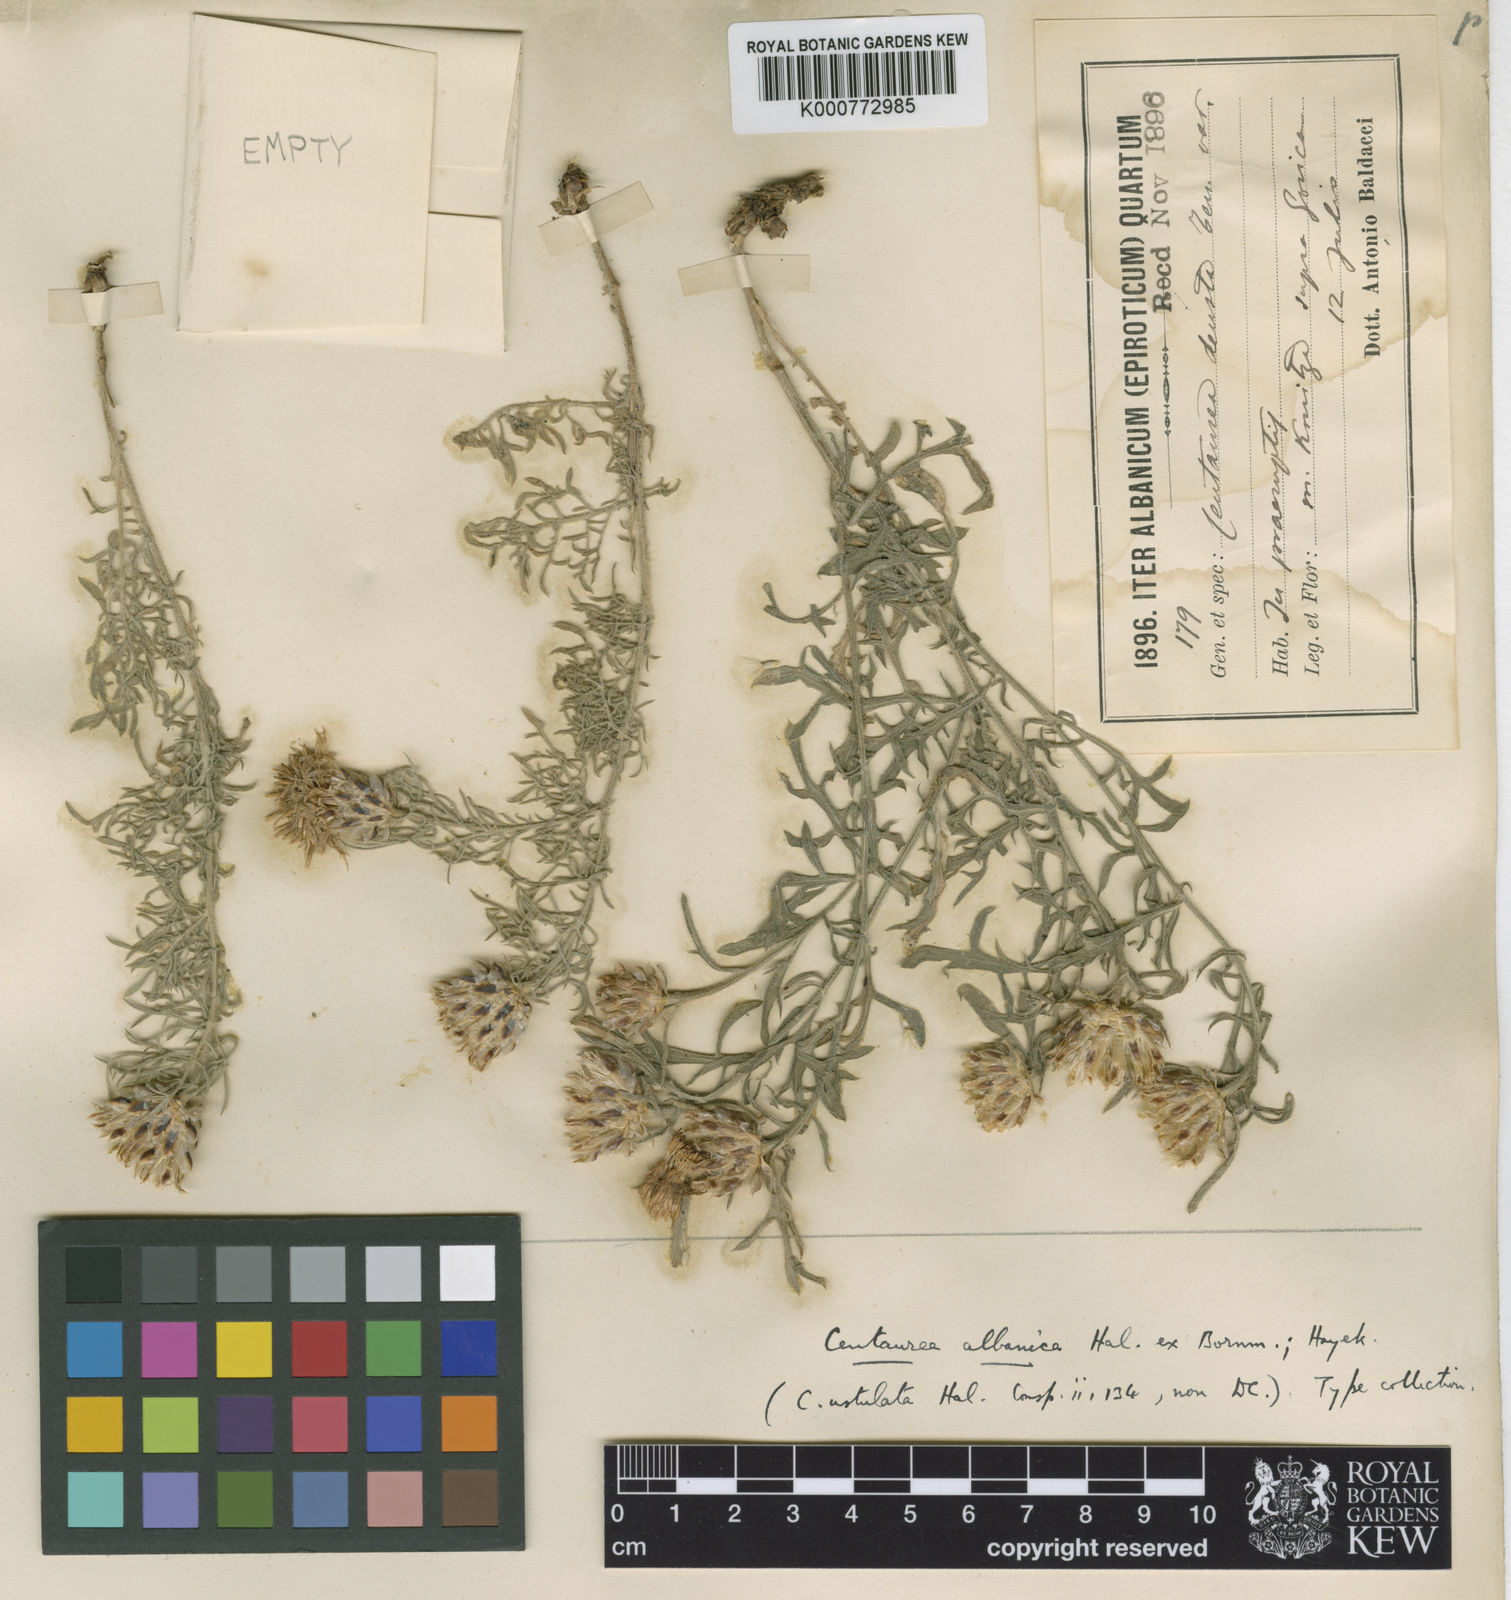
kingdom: Plantae
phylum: Tracheophyta
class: Magnoliopsida
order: Asterales
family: Asteraceae
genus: Centaurea
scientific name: Centaurea alba
